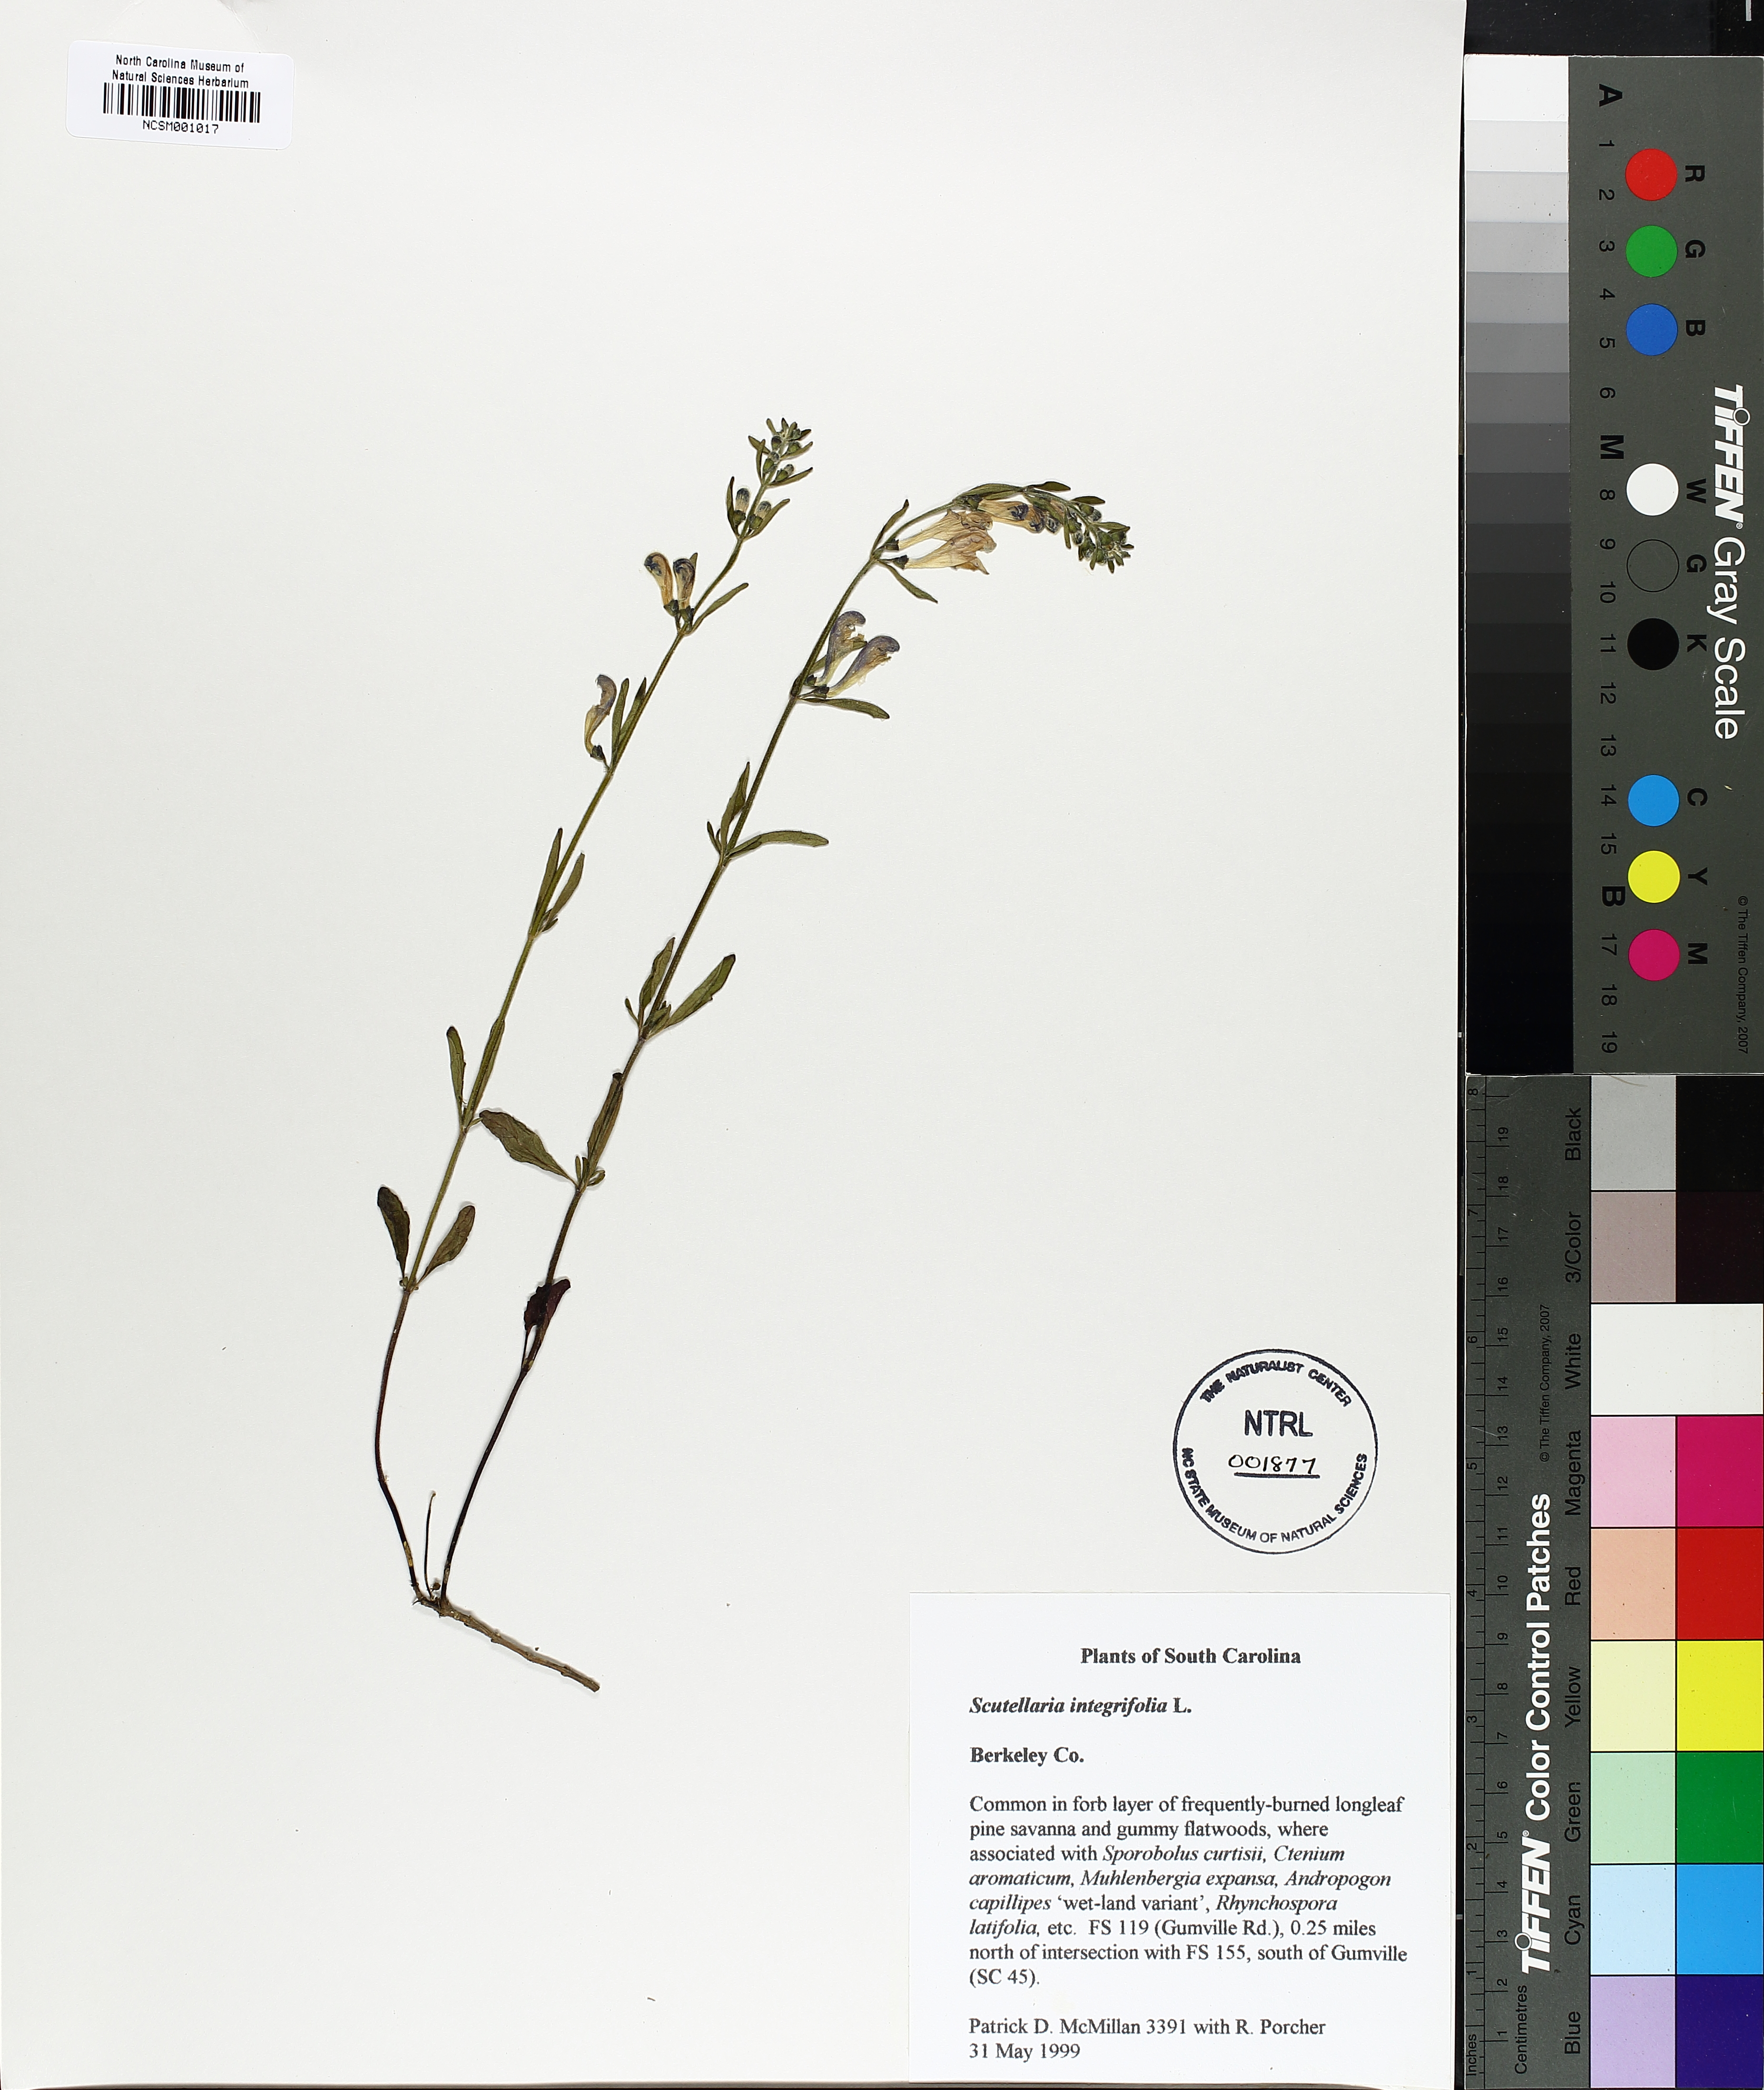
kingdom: Plantae
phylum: Tracheophyta
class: Magnoliopsida
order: Lamiales
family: Lamiaceae
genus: Scutellaria
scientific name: Scutellaria integrifolia
